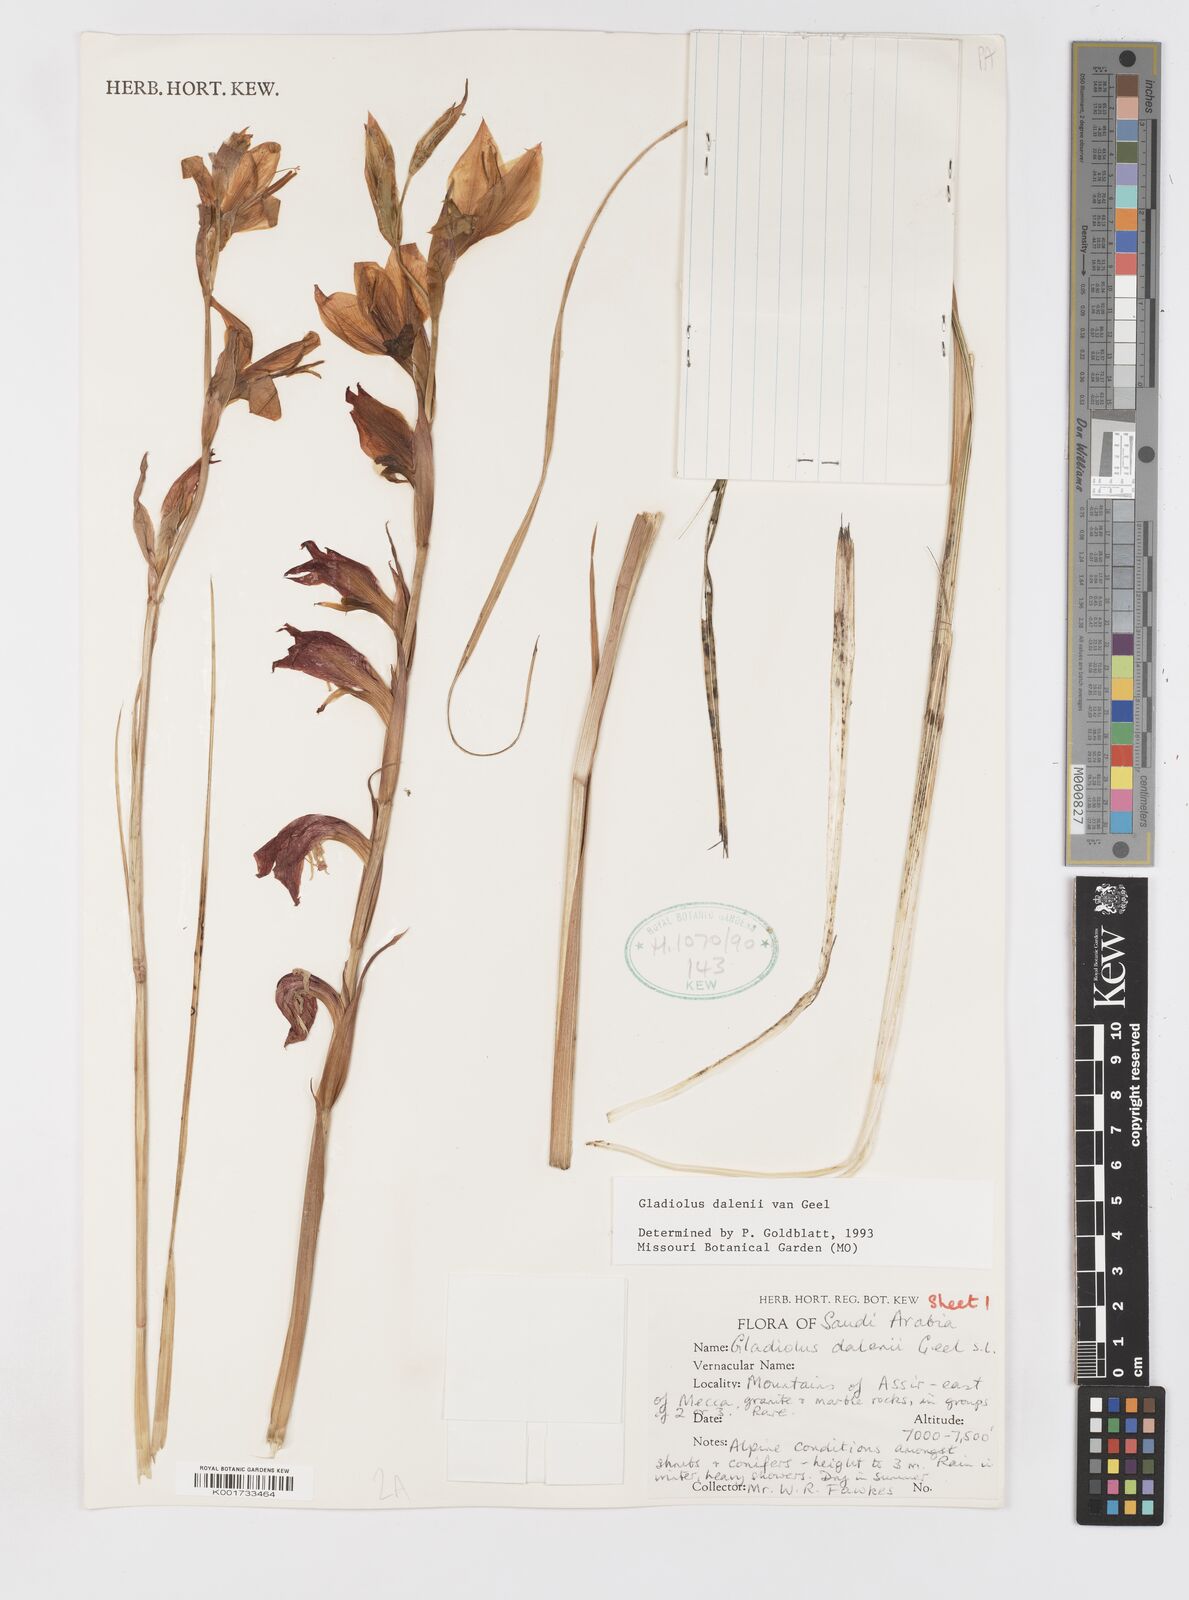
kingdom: Plantae
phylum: Tracheophyta
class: Liliopsida
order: Asparagales
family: Iridaceae
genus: Gladiolus
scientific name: Gladiolus dalenii
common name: Cornflag
